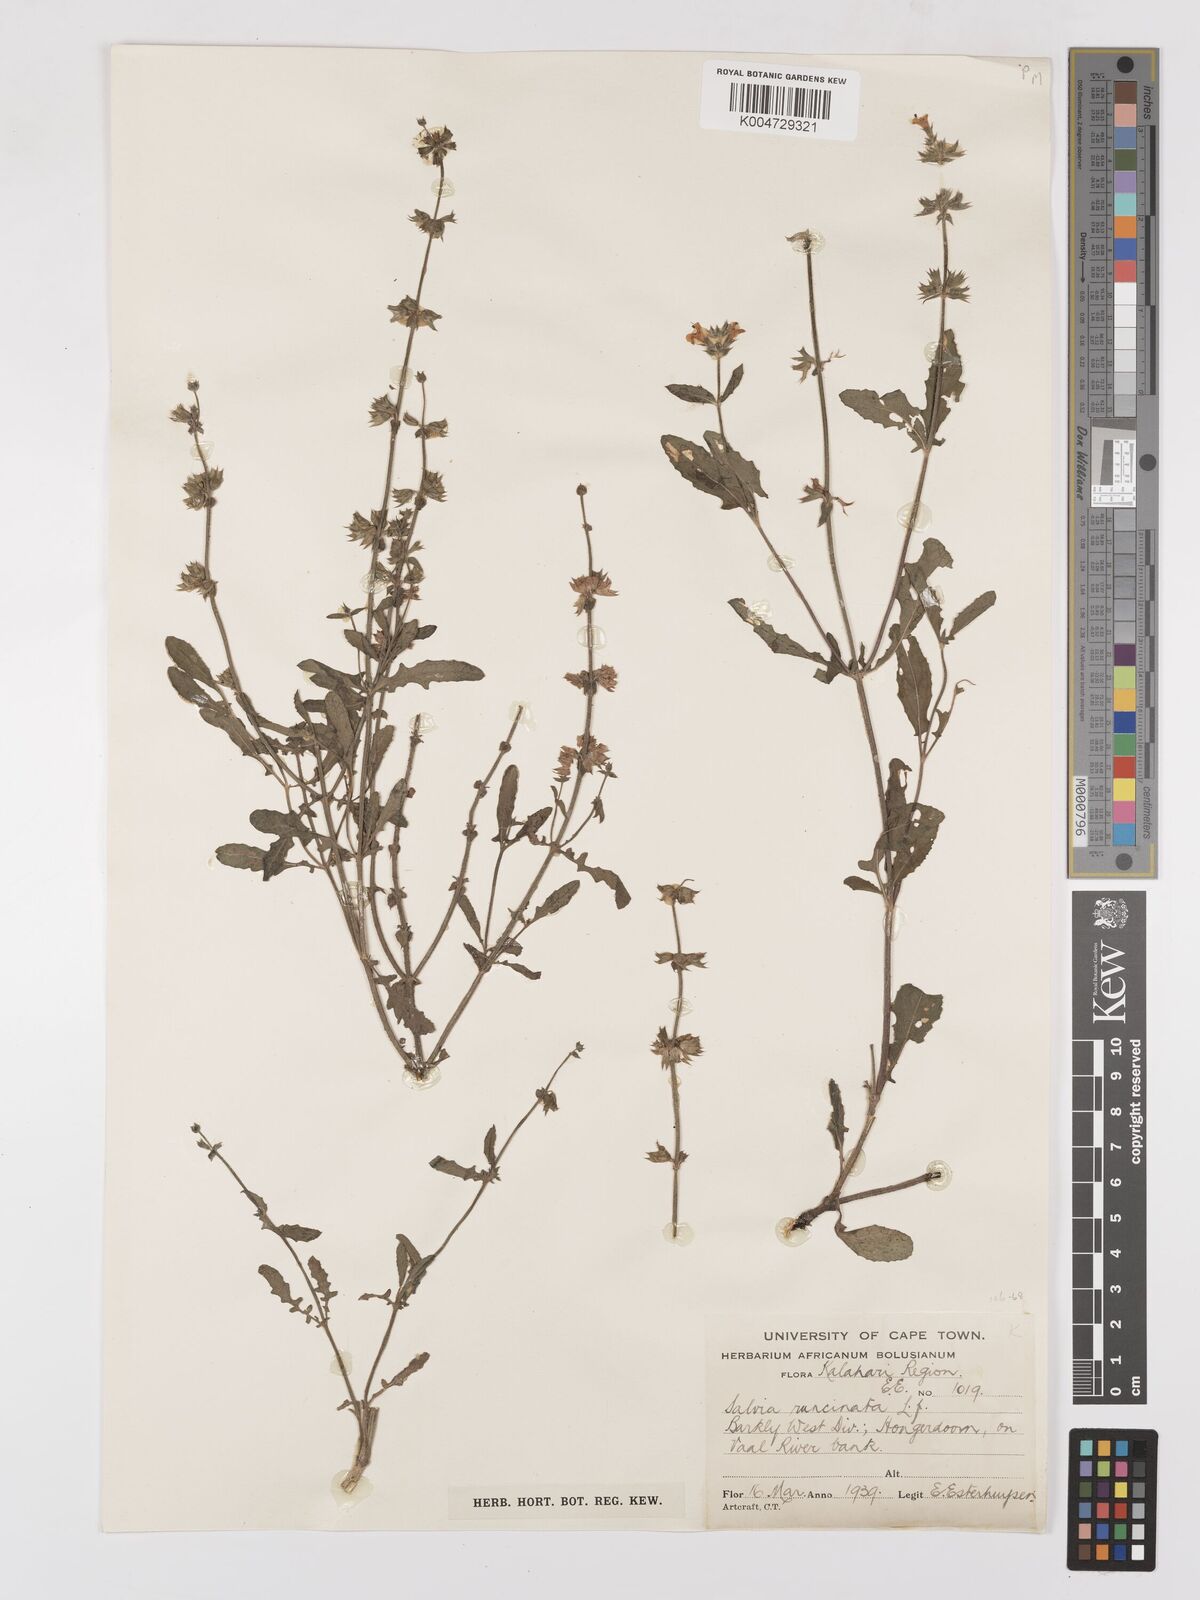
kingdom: Plantae
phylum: Tracheophyta
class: Magnoliopsida
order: Lamiales
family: Lamiaceae
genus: Salvia
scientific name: Salvia runcinata
